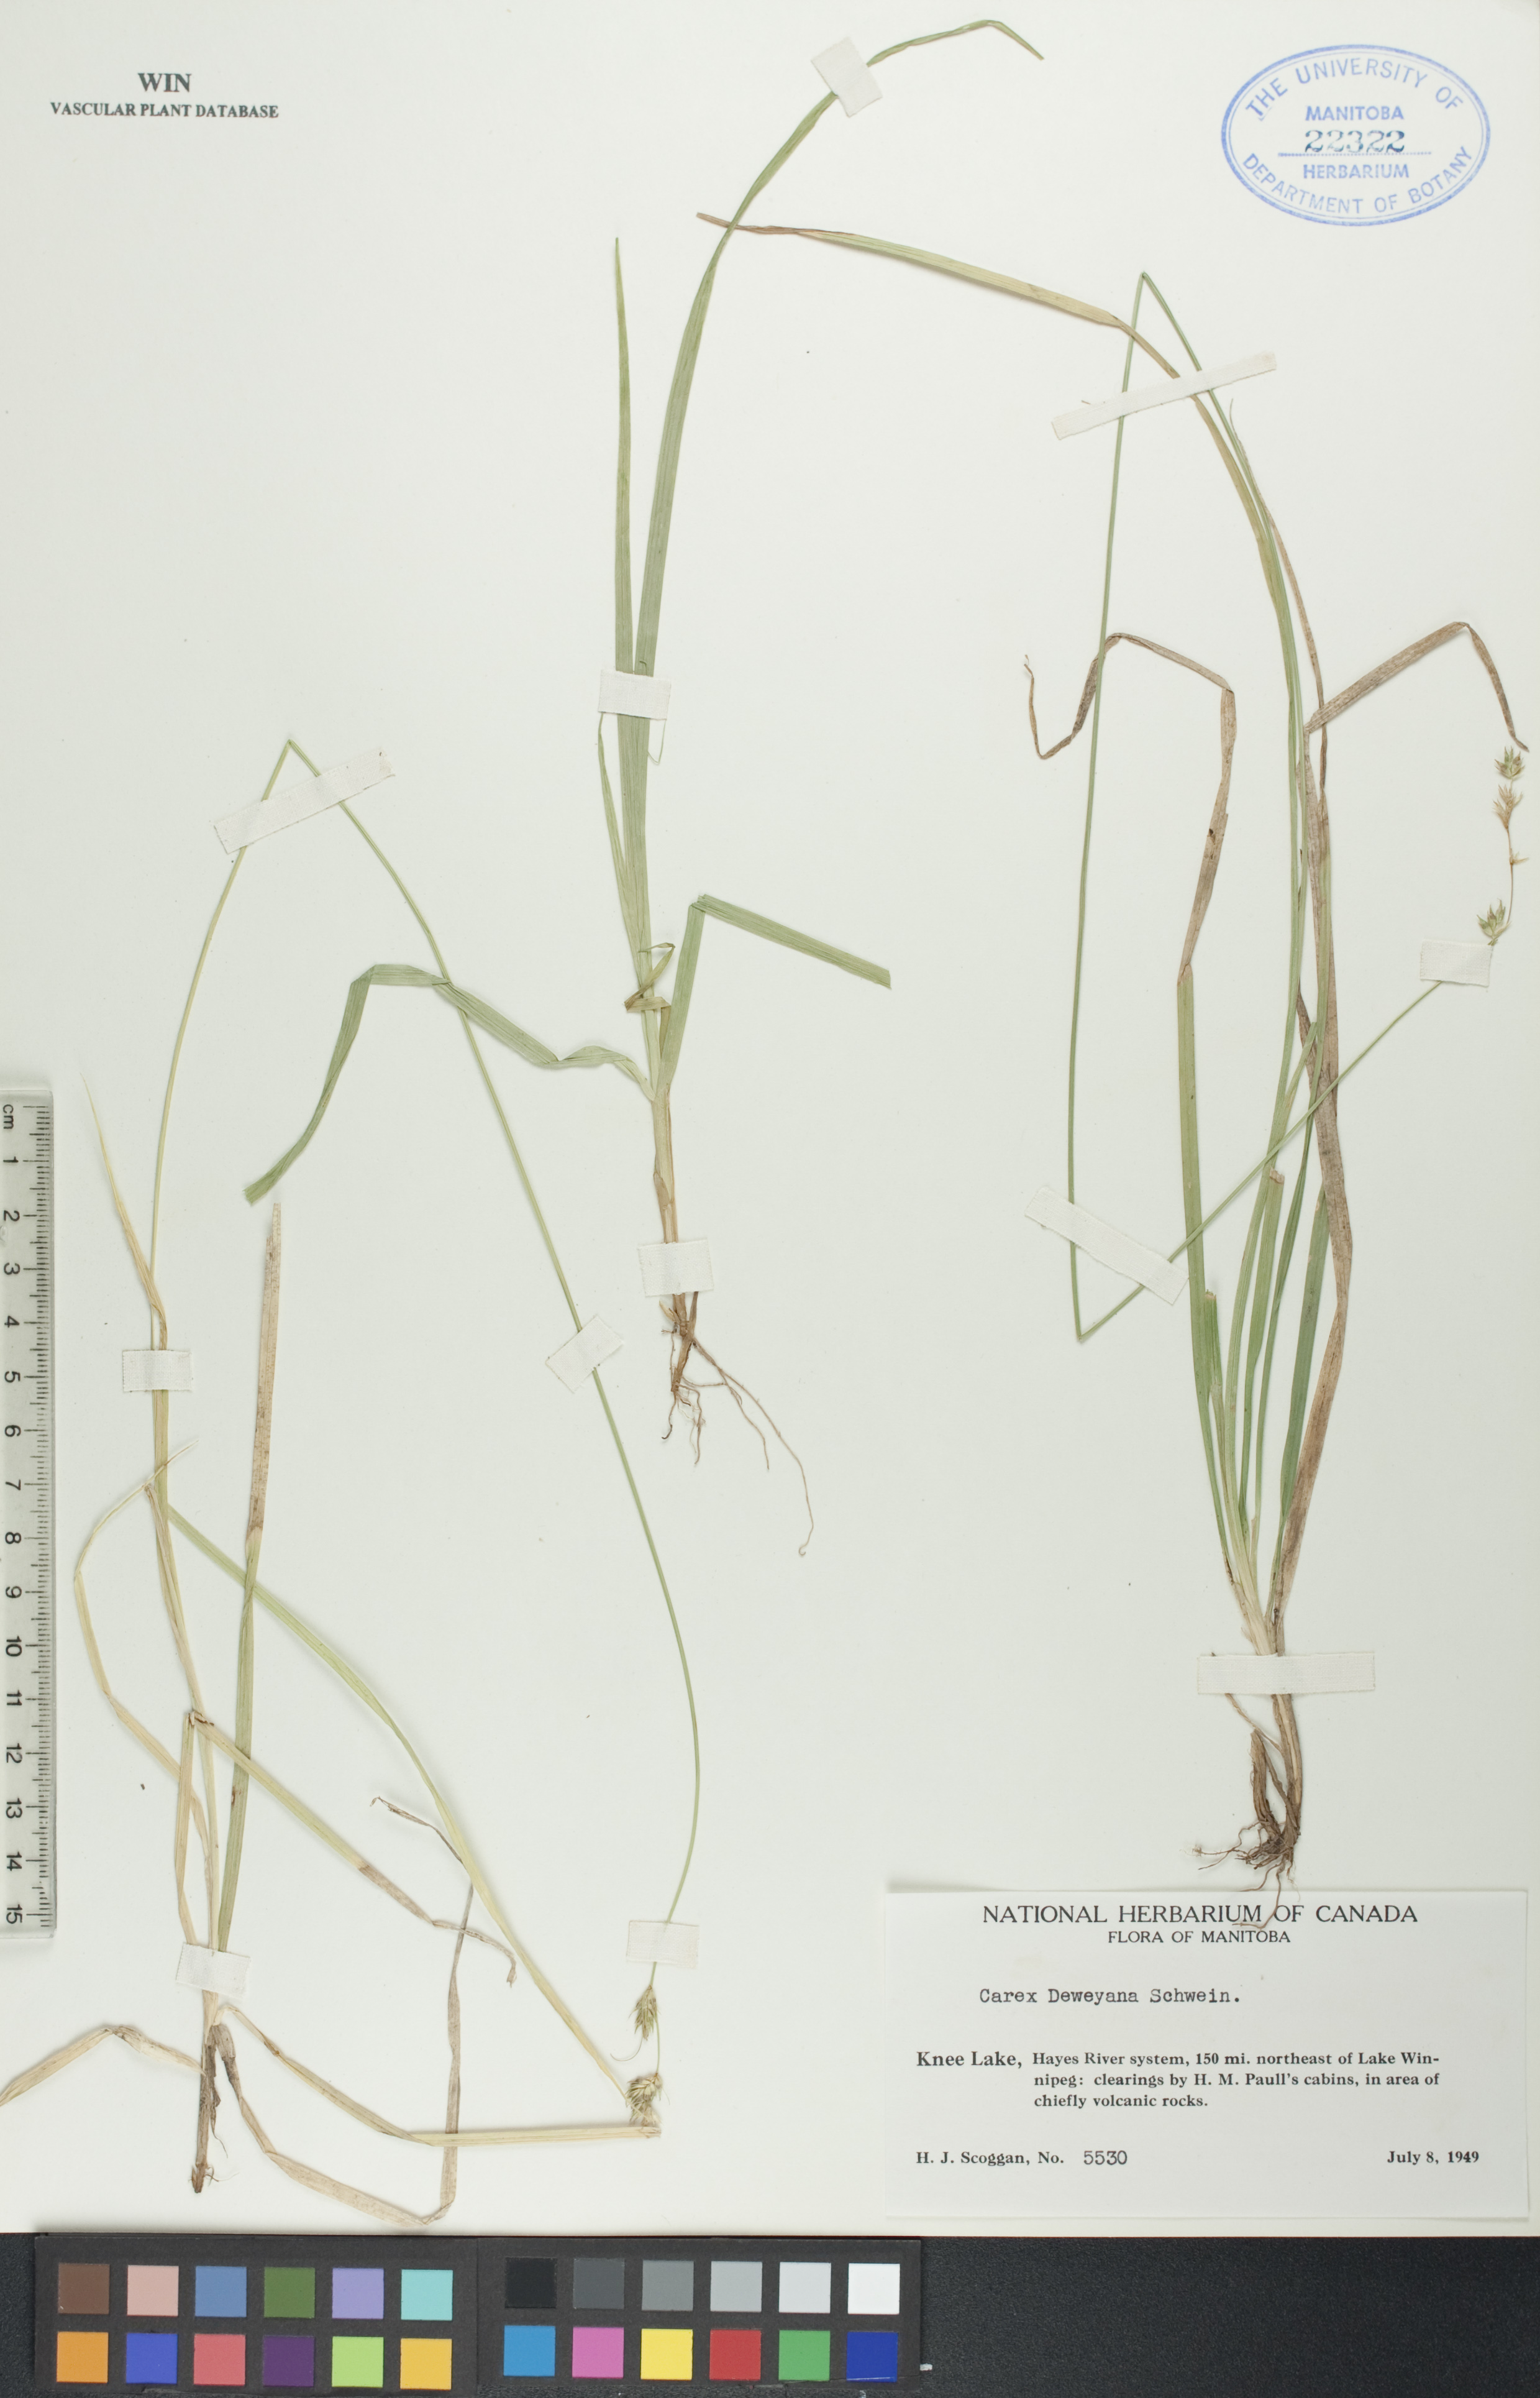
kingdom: Plantae
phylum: Tracheophyta
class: Liliopsida
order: Poales
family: Cyperaceae
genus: Carex
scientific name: Carex deweyana
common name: Dewey's sedge
